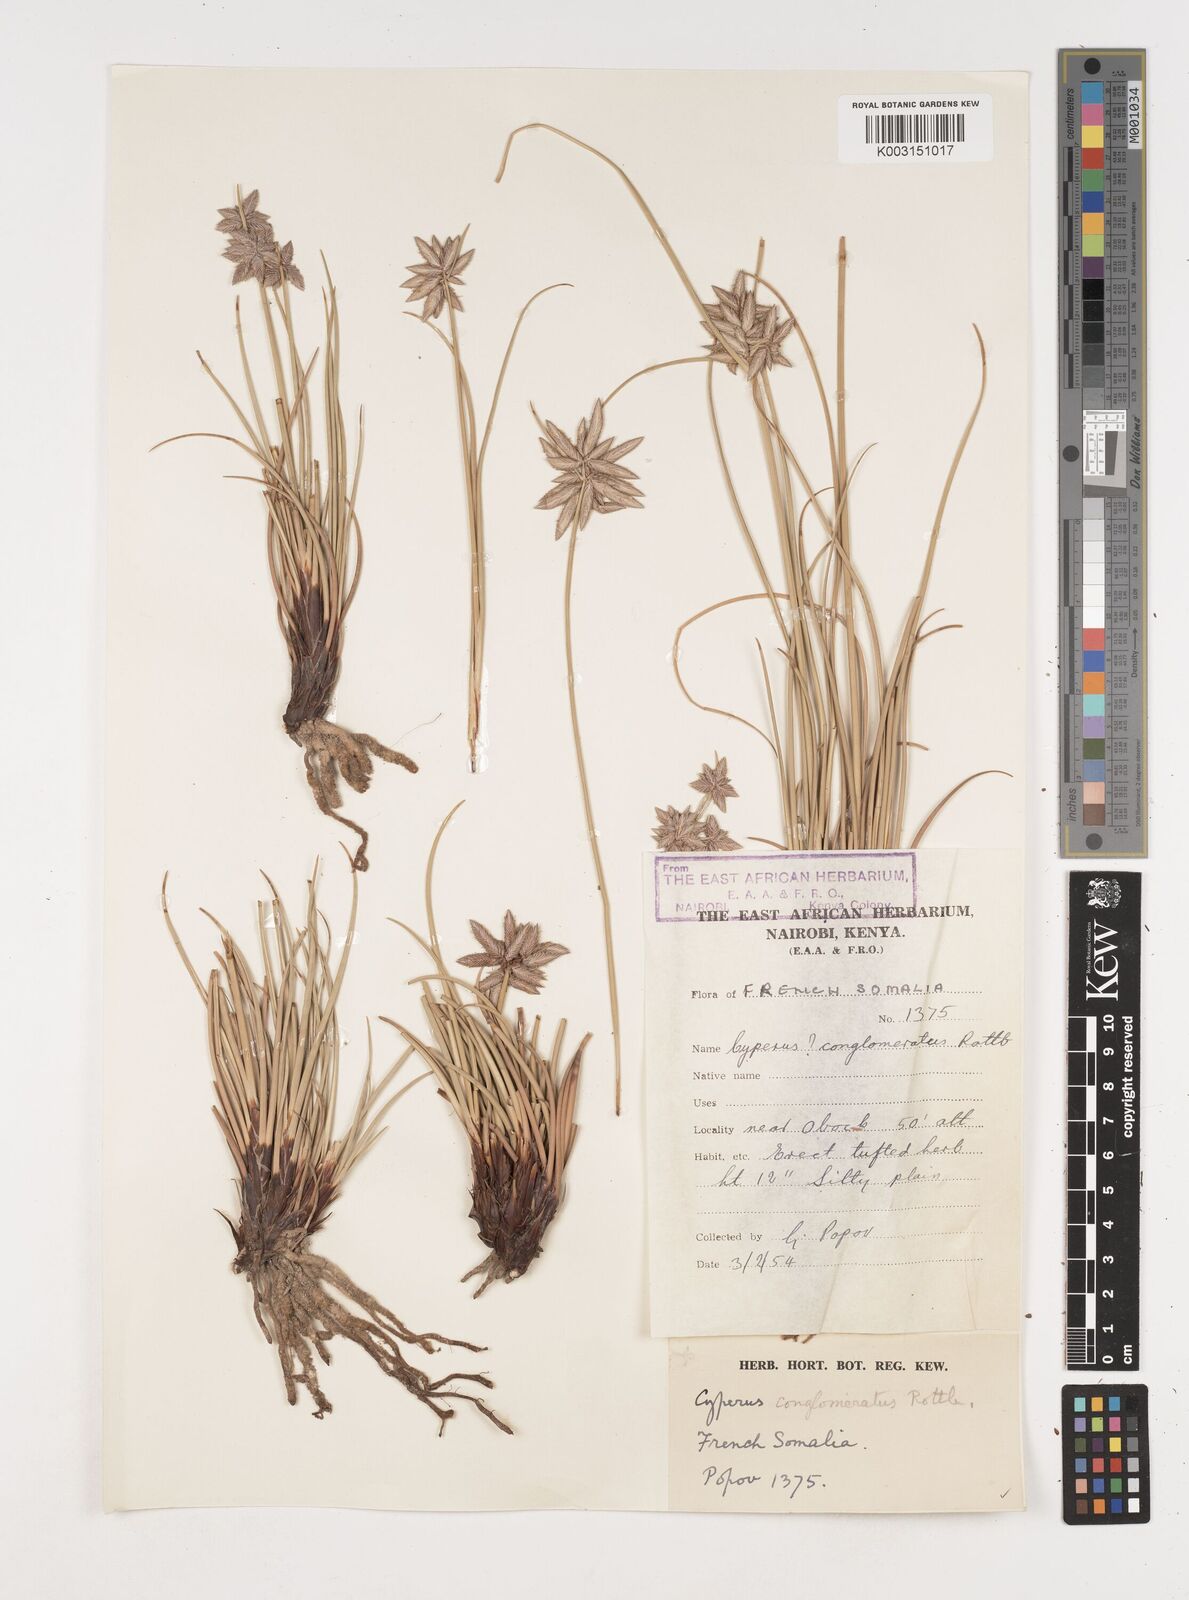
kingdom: Plantae
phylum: Tracheophyta
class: Liliopsida
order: Poales
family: Cyperaceae
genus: Cyperus
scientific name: Cyperus conglomeratus
